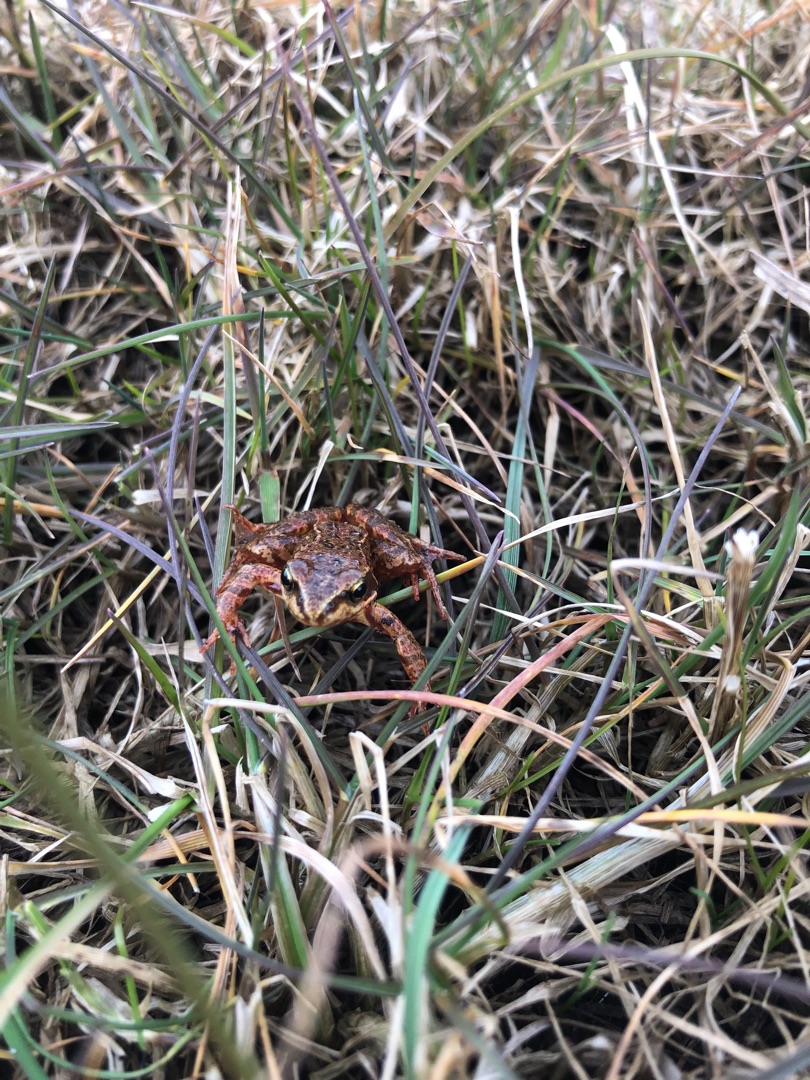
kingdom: Animalia
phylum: Chordata
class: Amphibia
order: Anura
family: Ranidae
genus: Rana
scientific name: Rana temporaria
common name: Butsnudet frø
